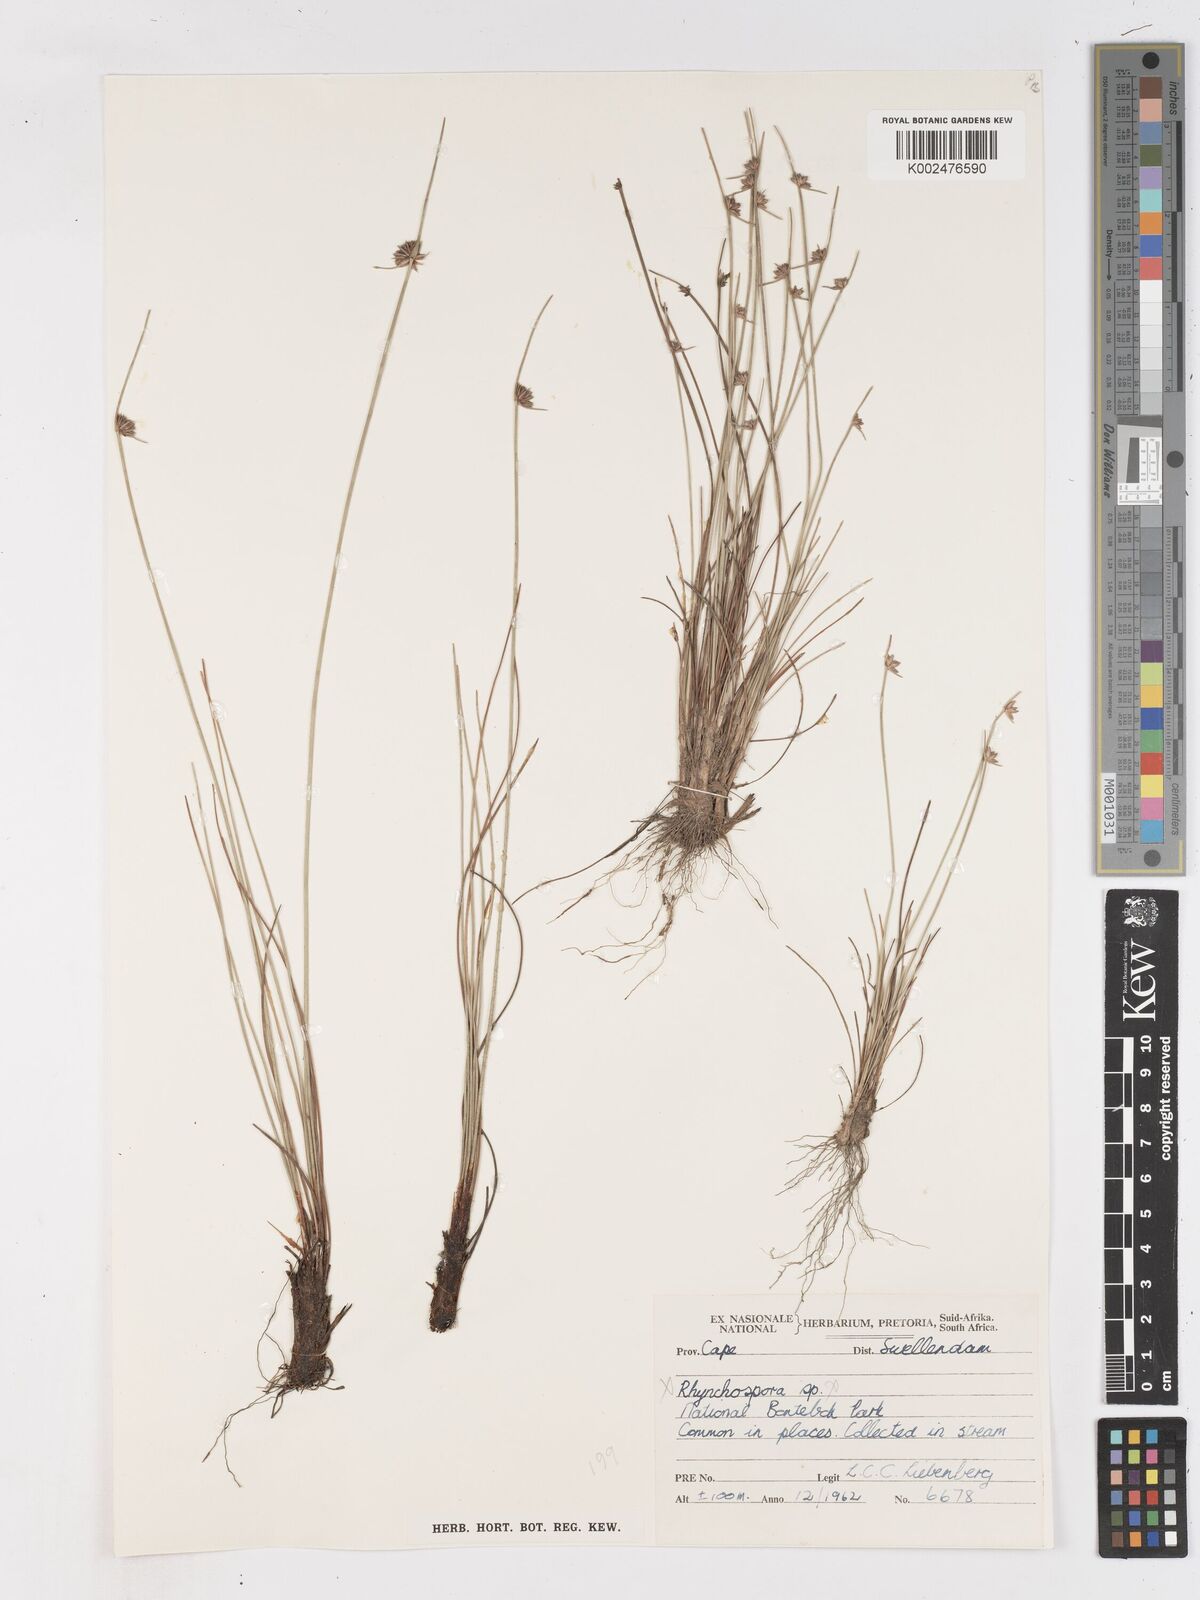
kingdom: Plantae
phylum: Tracheophyta
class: Liliopsida
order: Poales
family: Cyperaceae
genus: Ficinia
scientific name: Ficinia
